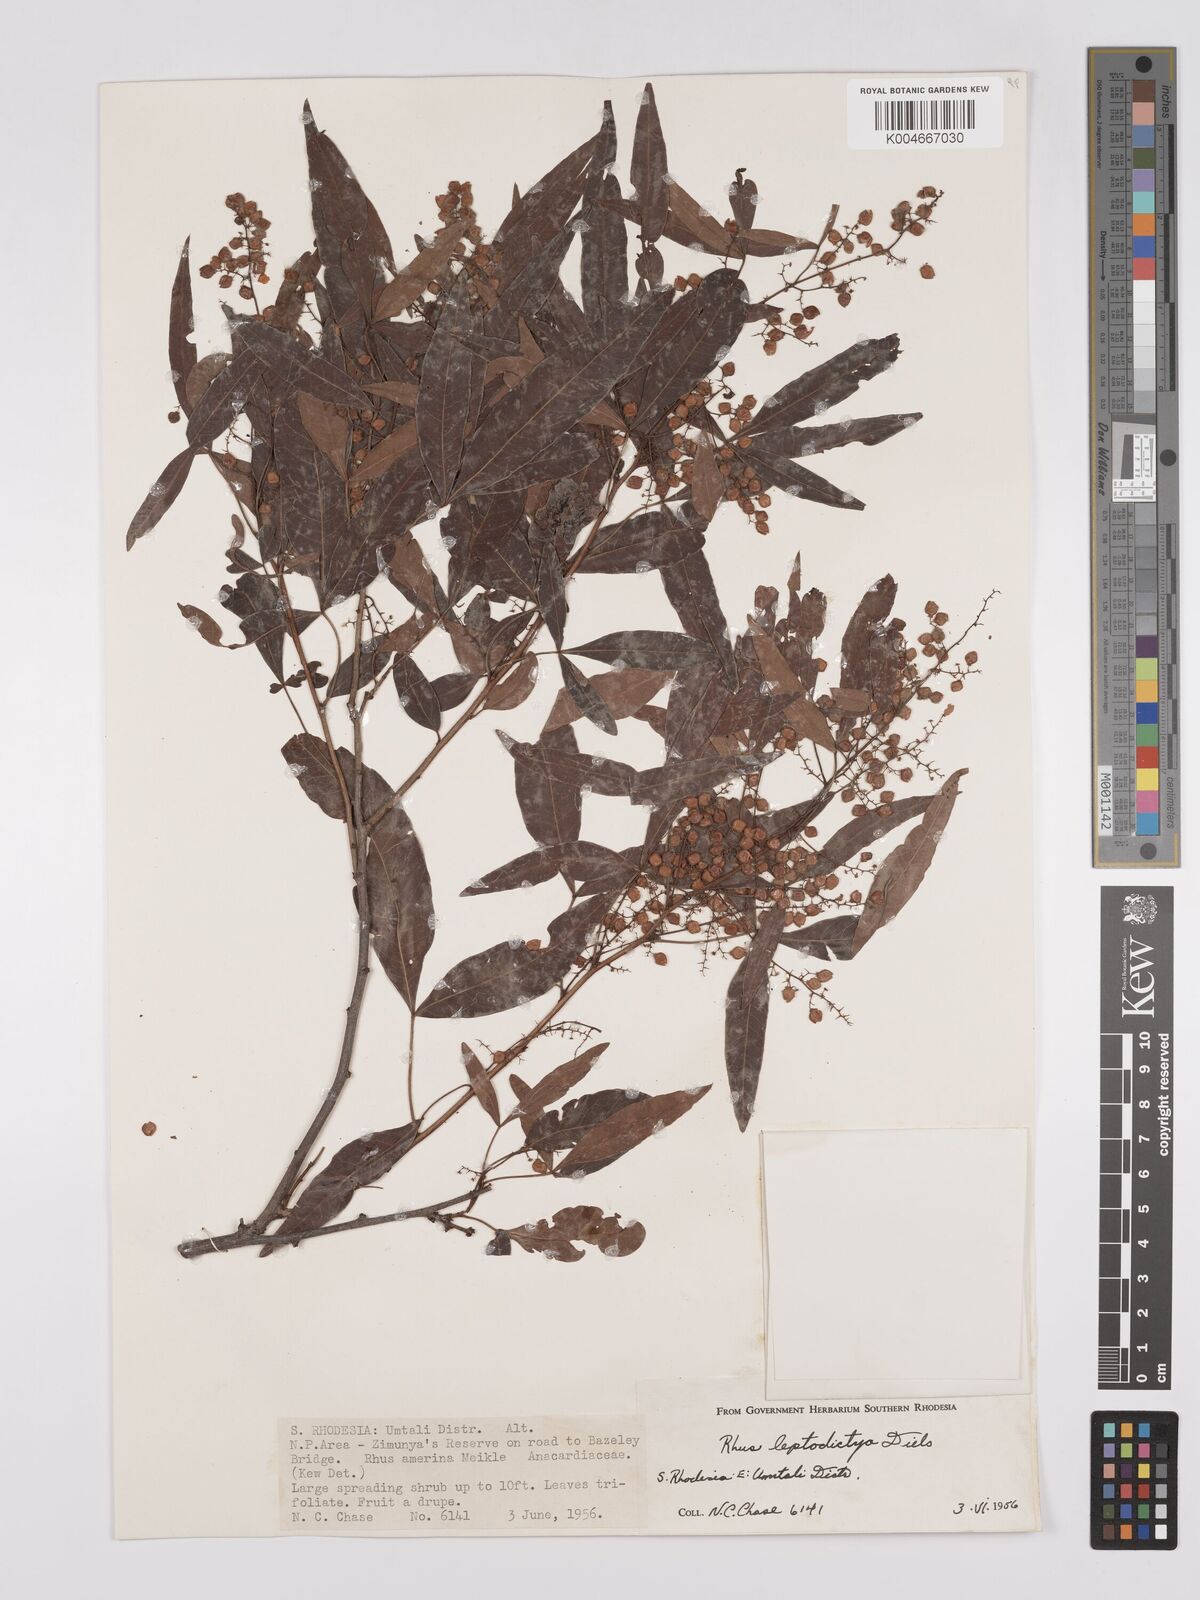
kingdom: Plantae
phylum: Tracheophyta
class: Magnoliopsida
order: Sapindales
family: Anacardiaceae
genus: Searsia
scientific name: Searsia leptodictya
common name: Mountain karee
